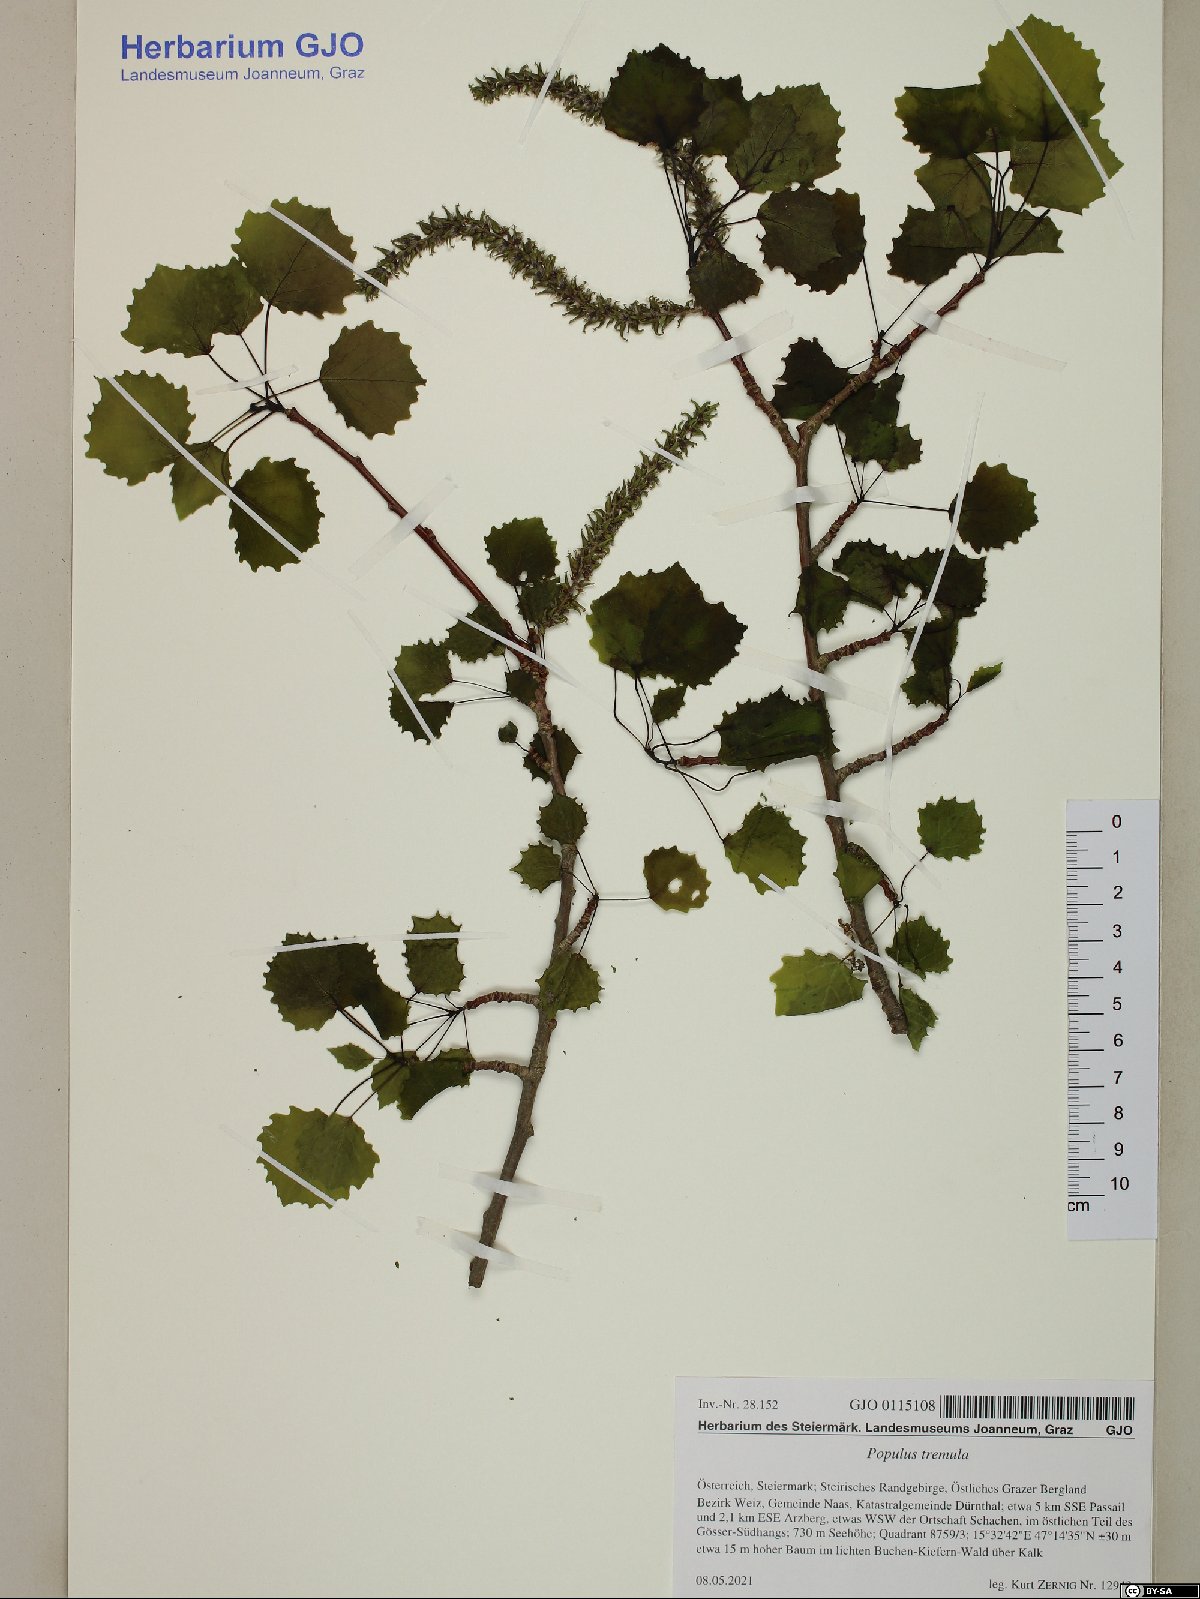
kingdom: Plantae
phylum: Tracheophyta
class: Magnoliopsida
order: Malpighiales
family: Salicaceae
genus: Populus
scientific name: Populus tremula
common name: European aspen
